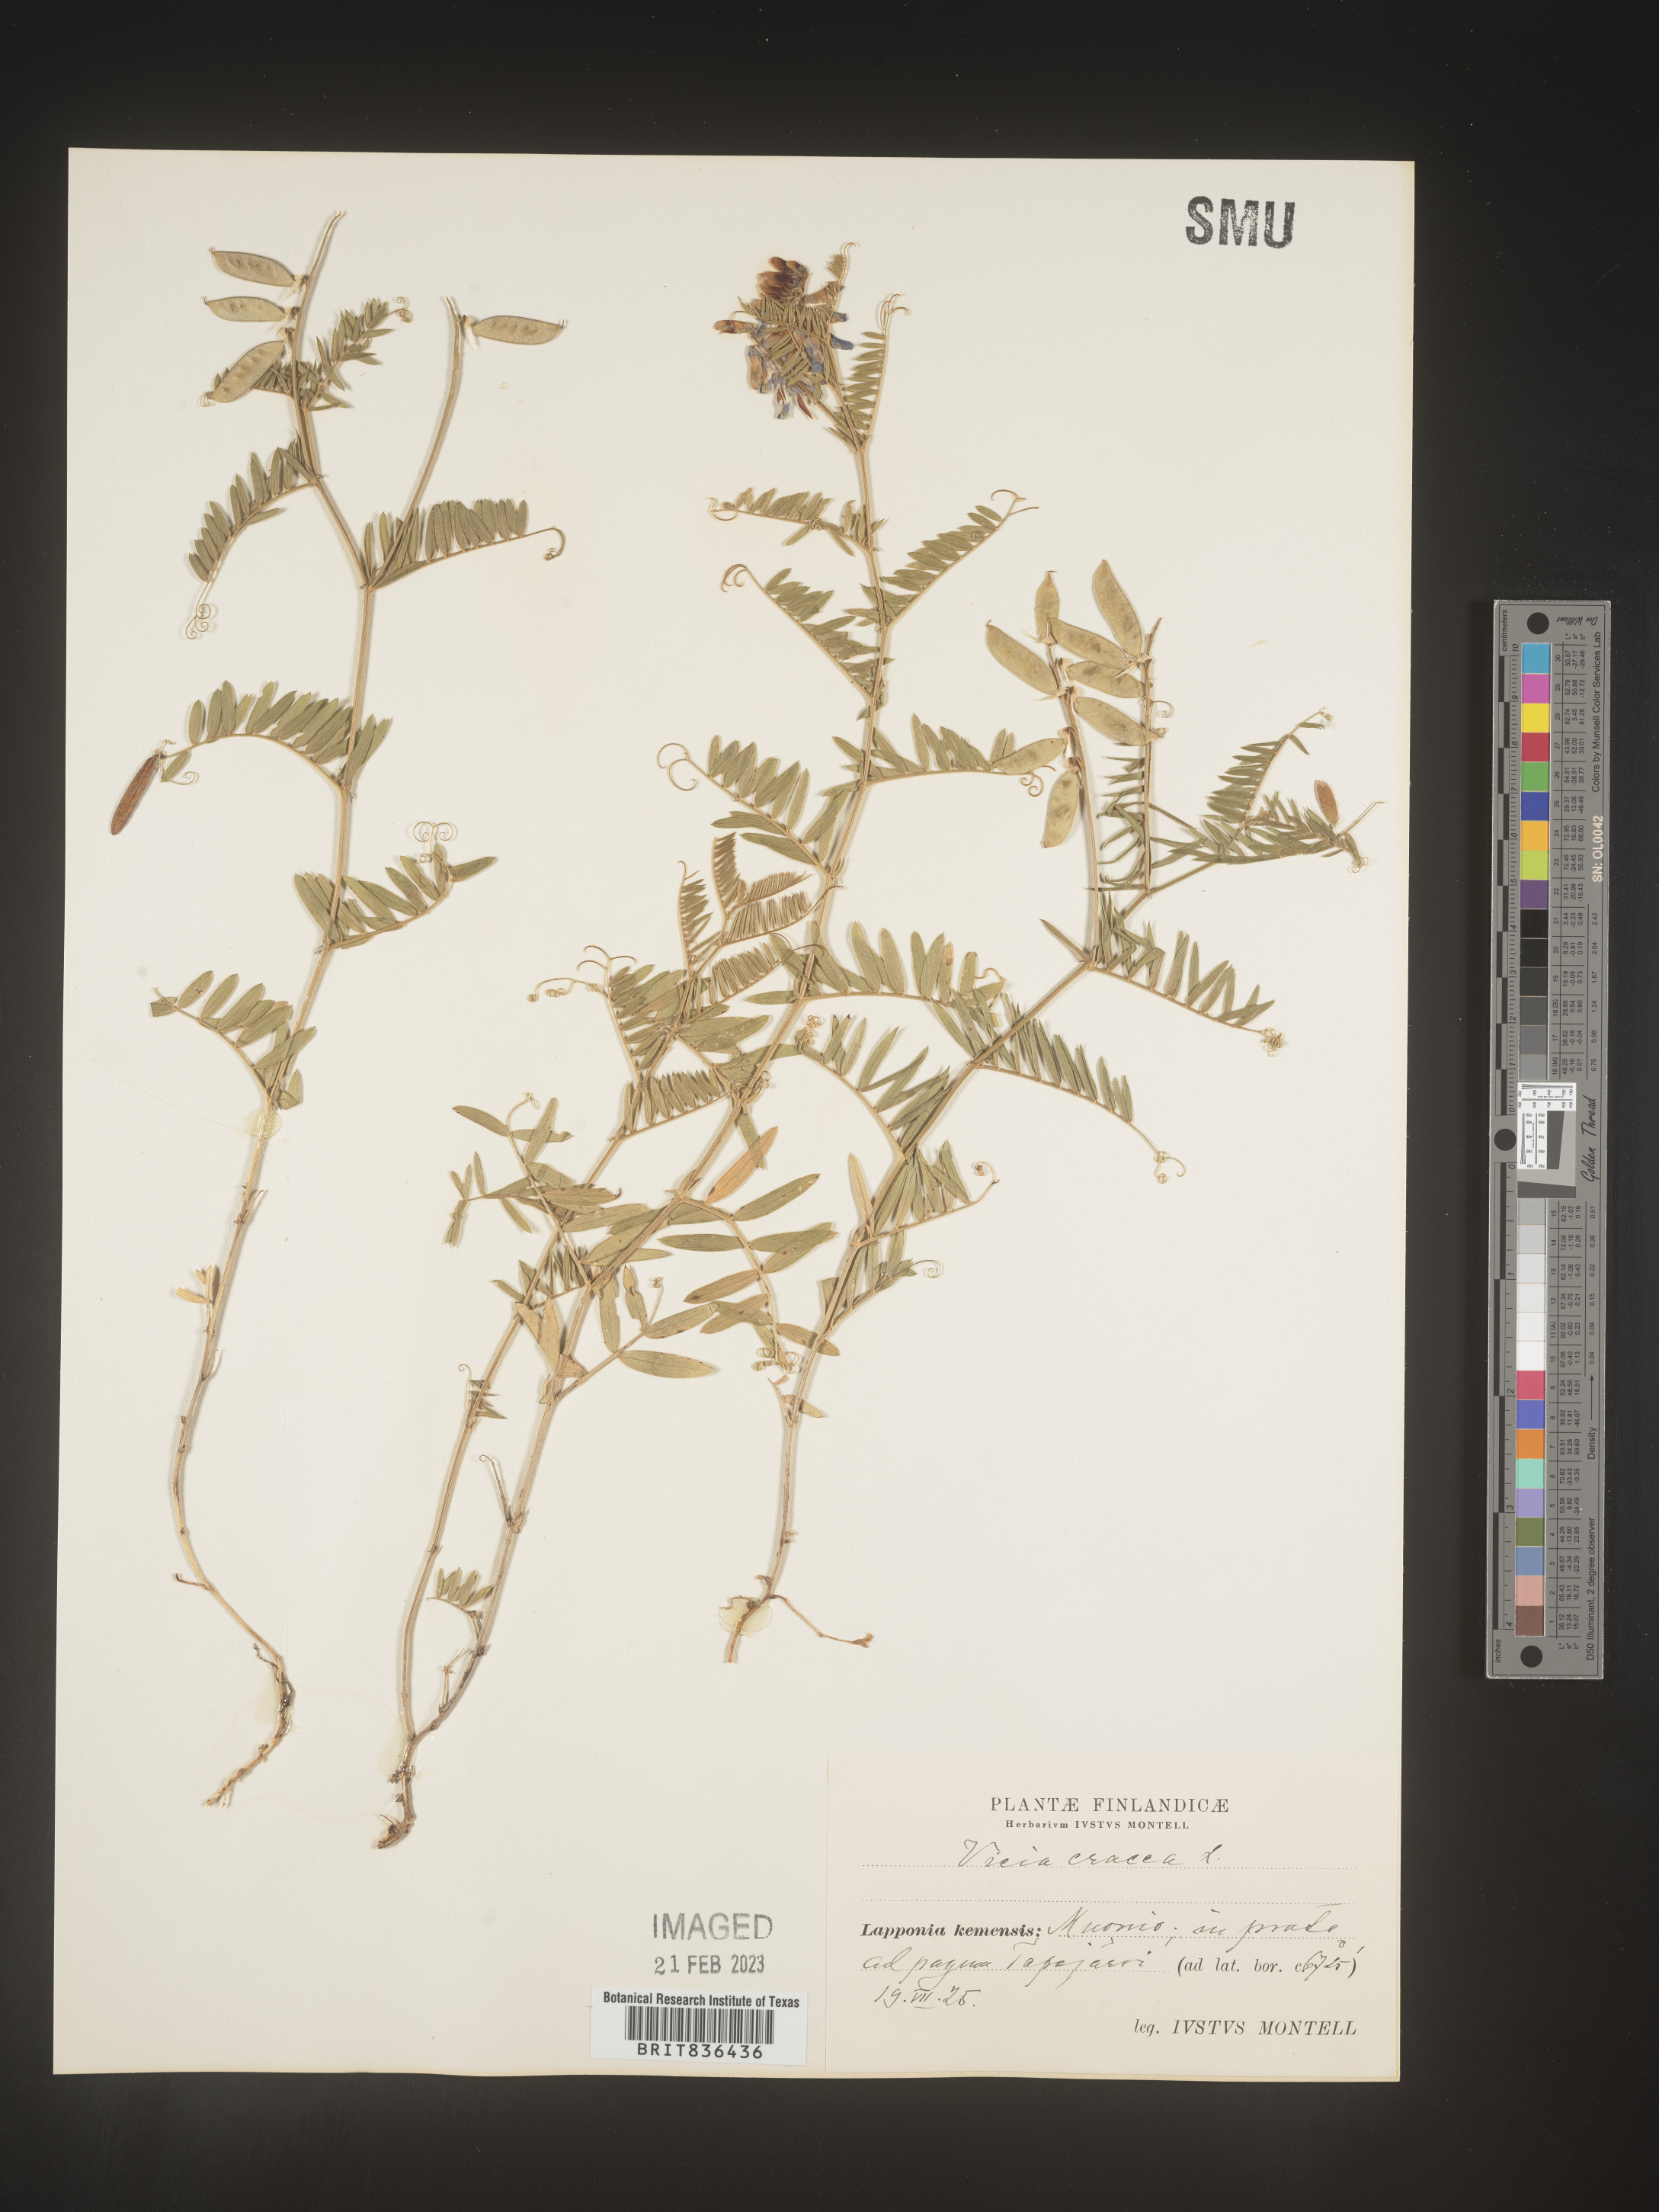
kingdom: Plantae
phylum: Tracheophyta
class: Magnoliopsida
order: Fabales
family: Fabaceae
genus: Vicia
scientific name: Vicia
